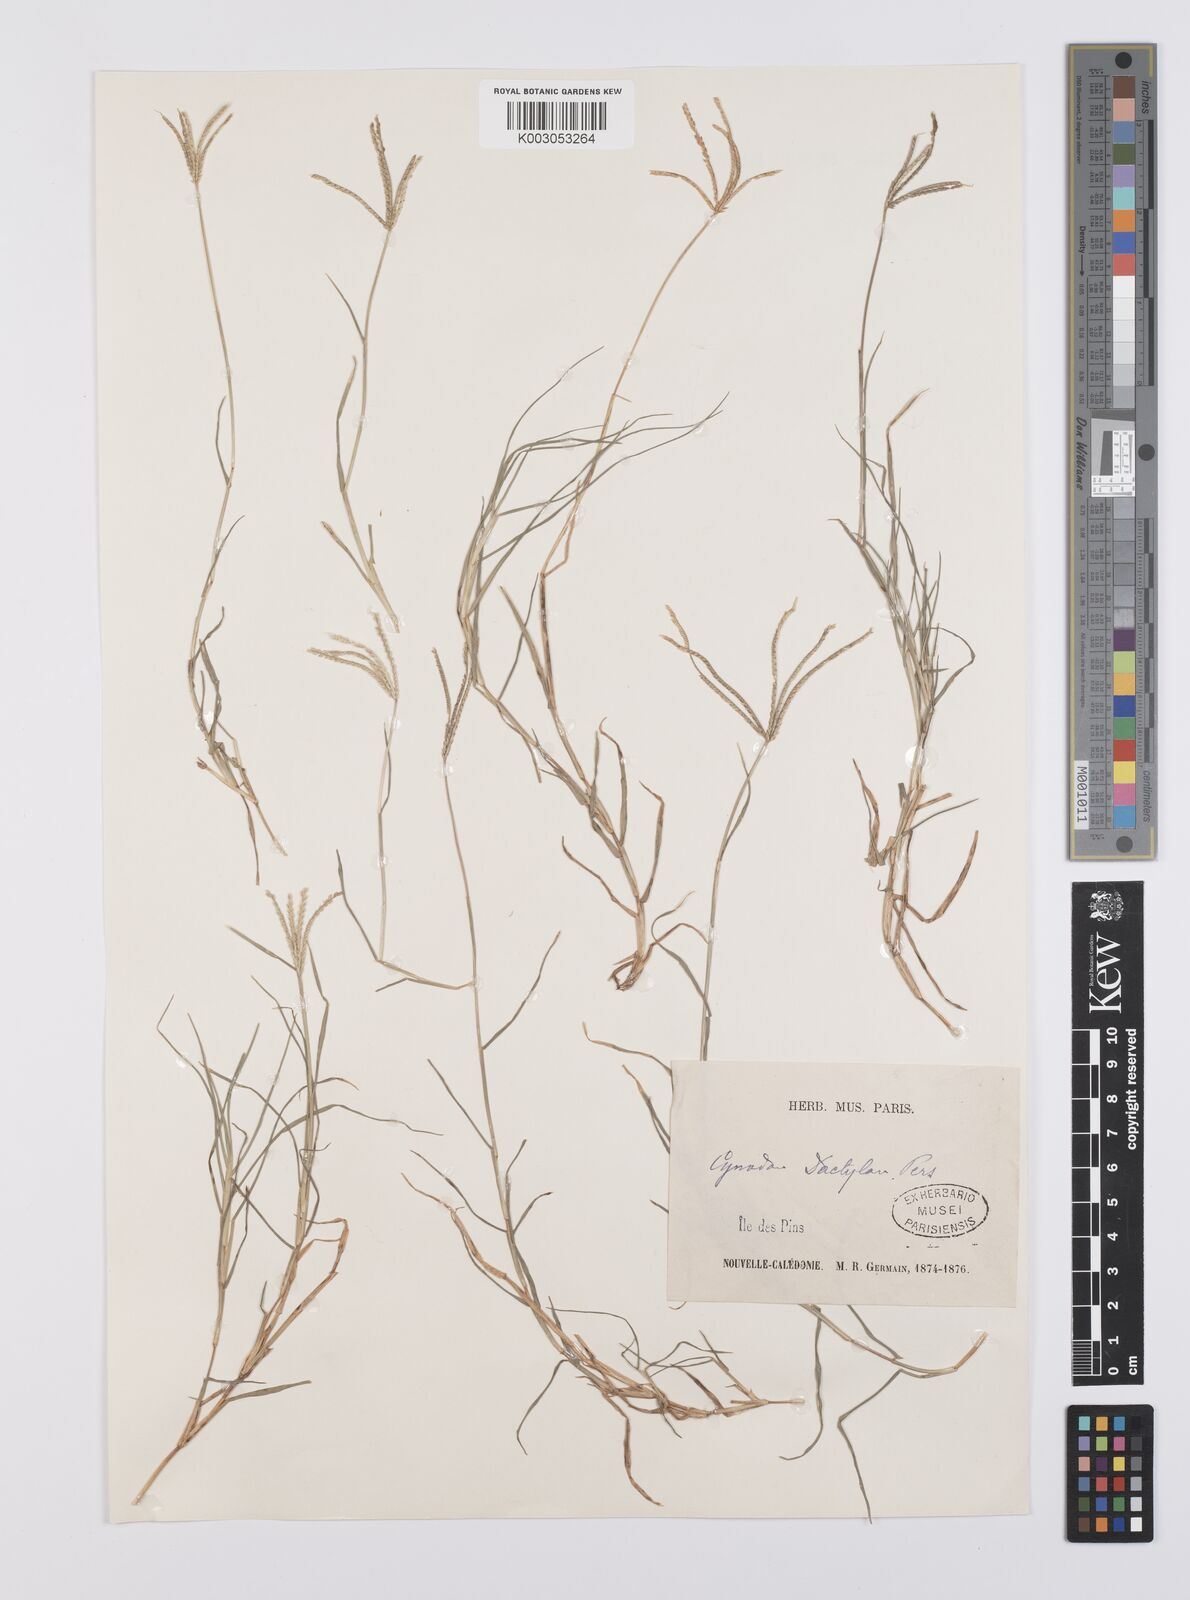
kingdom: Plantae
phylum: Tracheophyta
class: Liliopsida
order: Poales
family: Poaceae
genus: Cynodon
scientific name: Cynodon dactylon
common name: Bermuda grass
